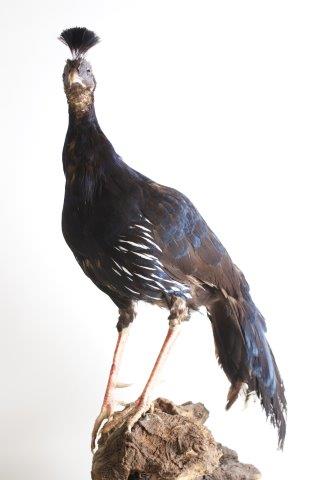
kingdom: Animalia
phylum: Chordata
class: Aves
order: Galliformes
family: Phasianidae
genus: Lophura
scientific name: Lophura ignita
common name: Crested fireback
